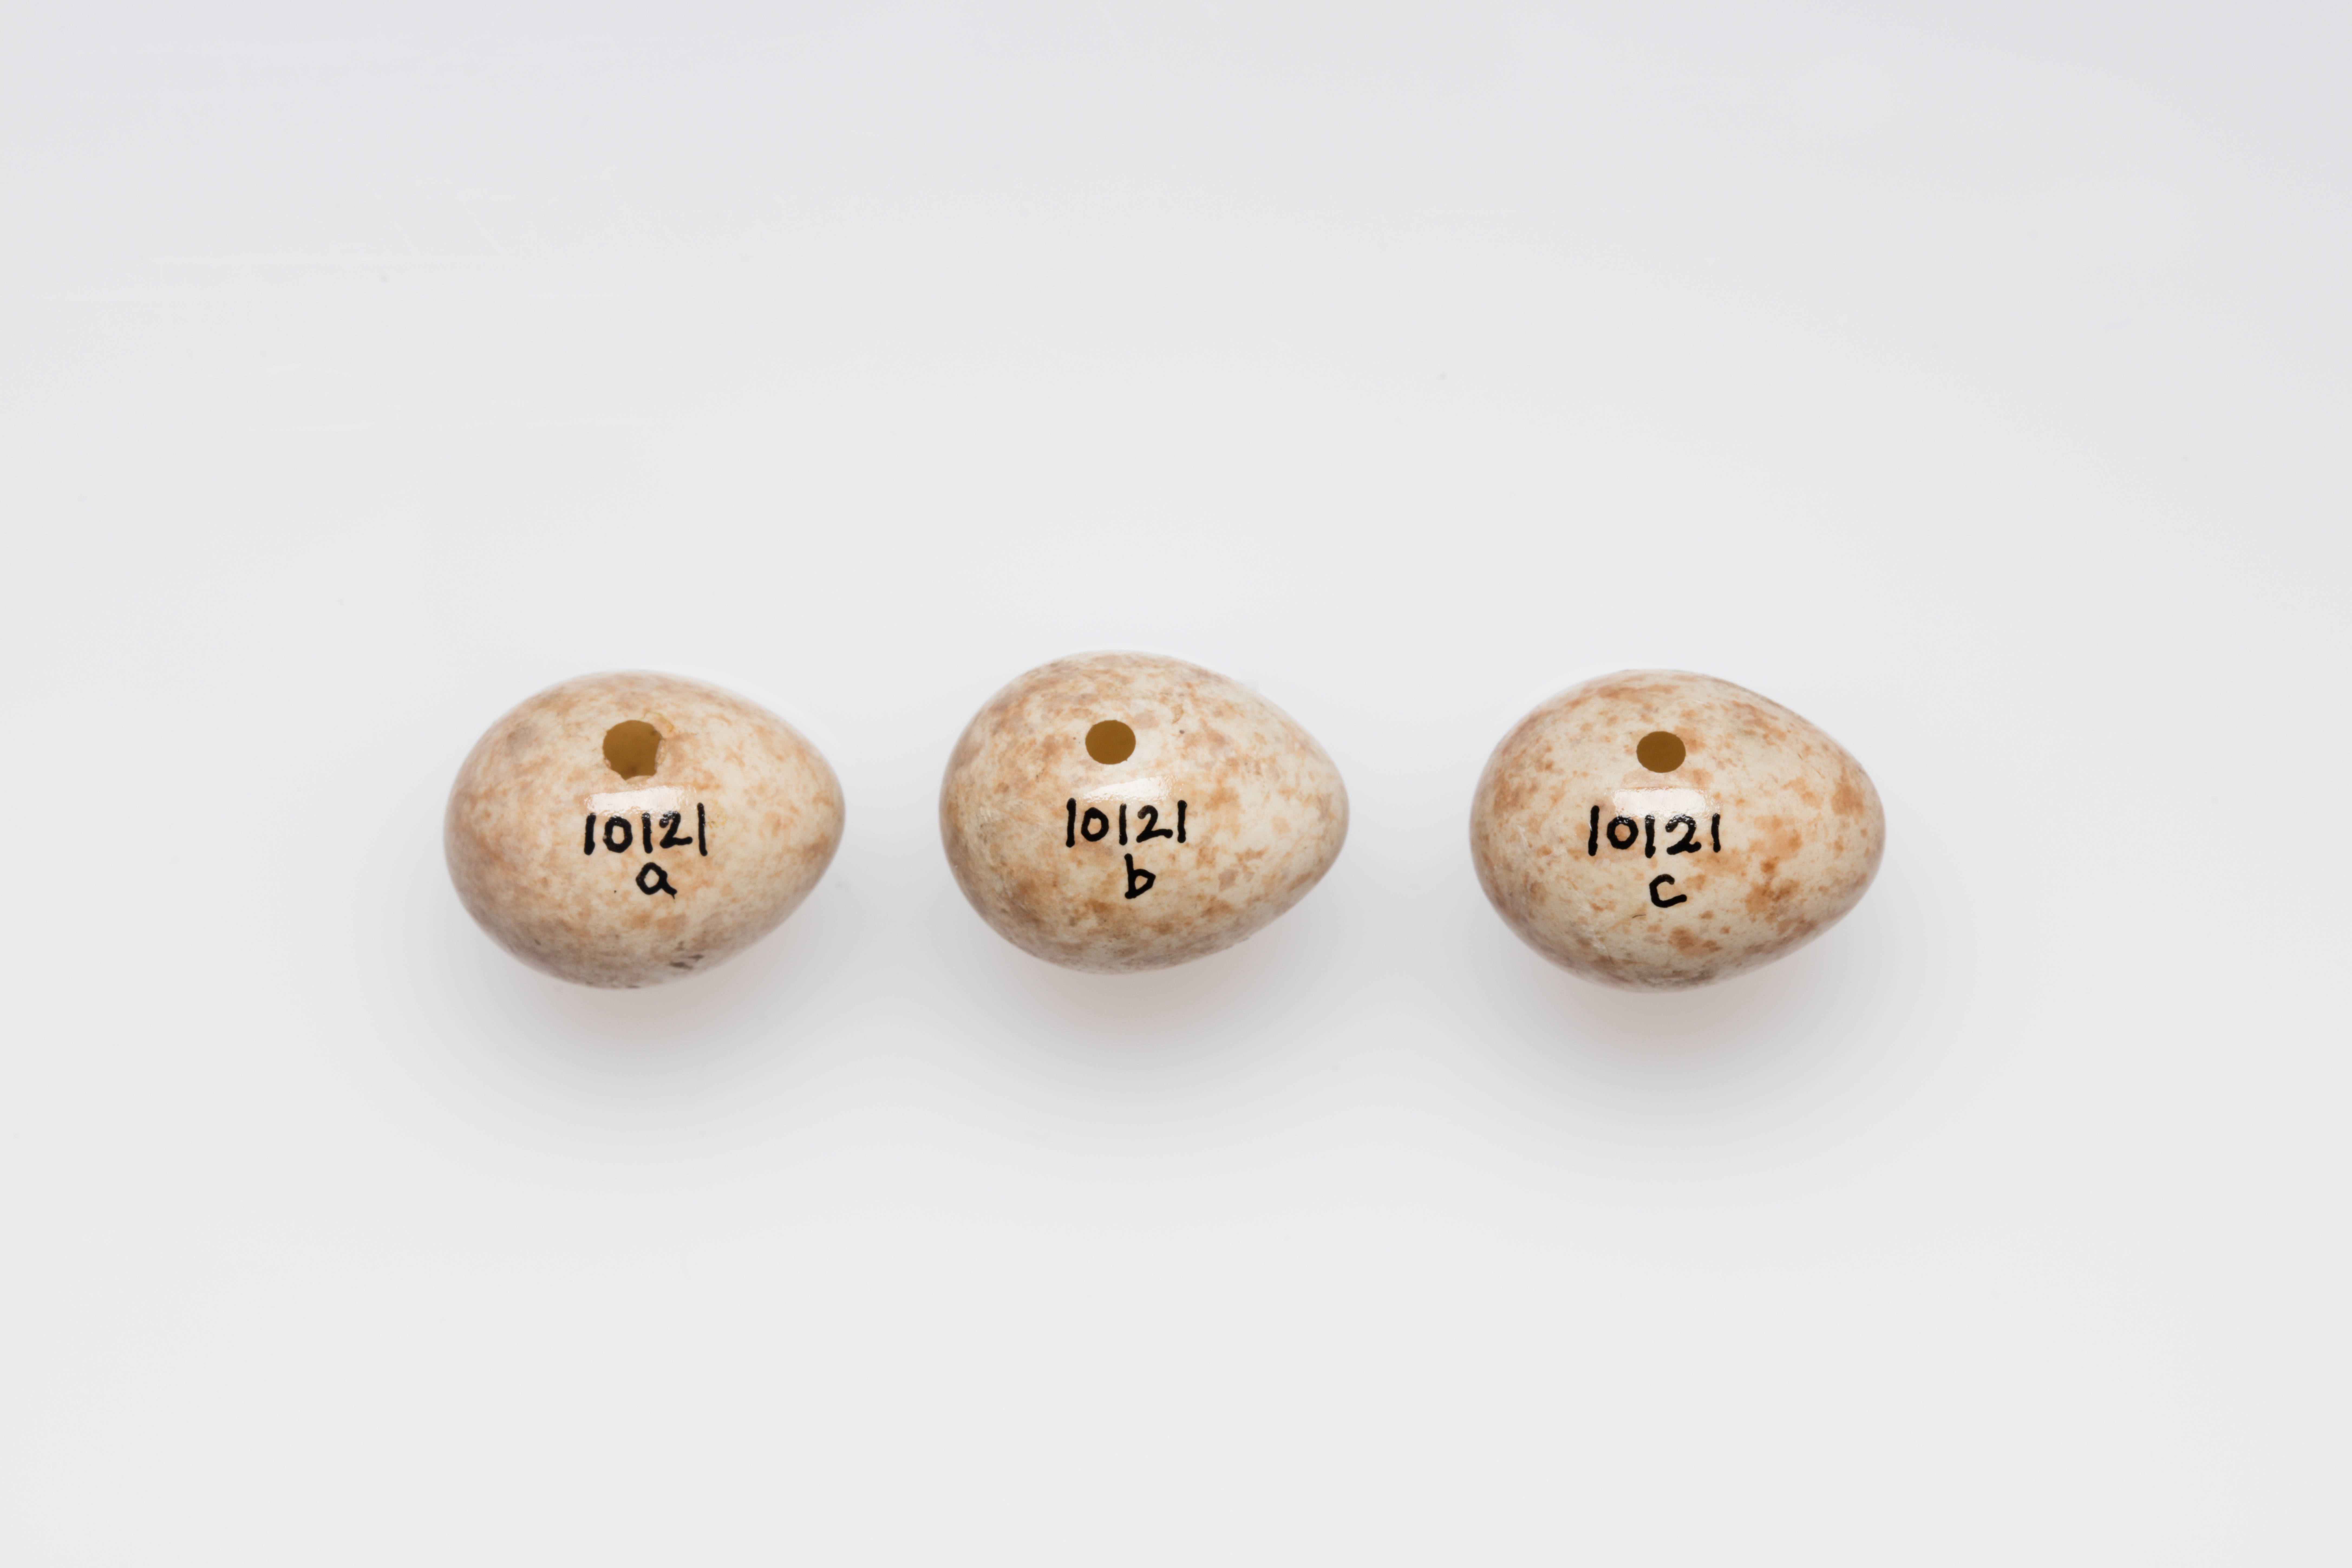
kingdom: Animalia
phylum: Chordata
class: Aves
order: Passeriformes
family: Muscicapidae
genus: Muscicapa
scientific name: Muscicapa striata
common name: Spotted flycatcher
